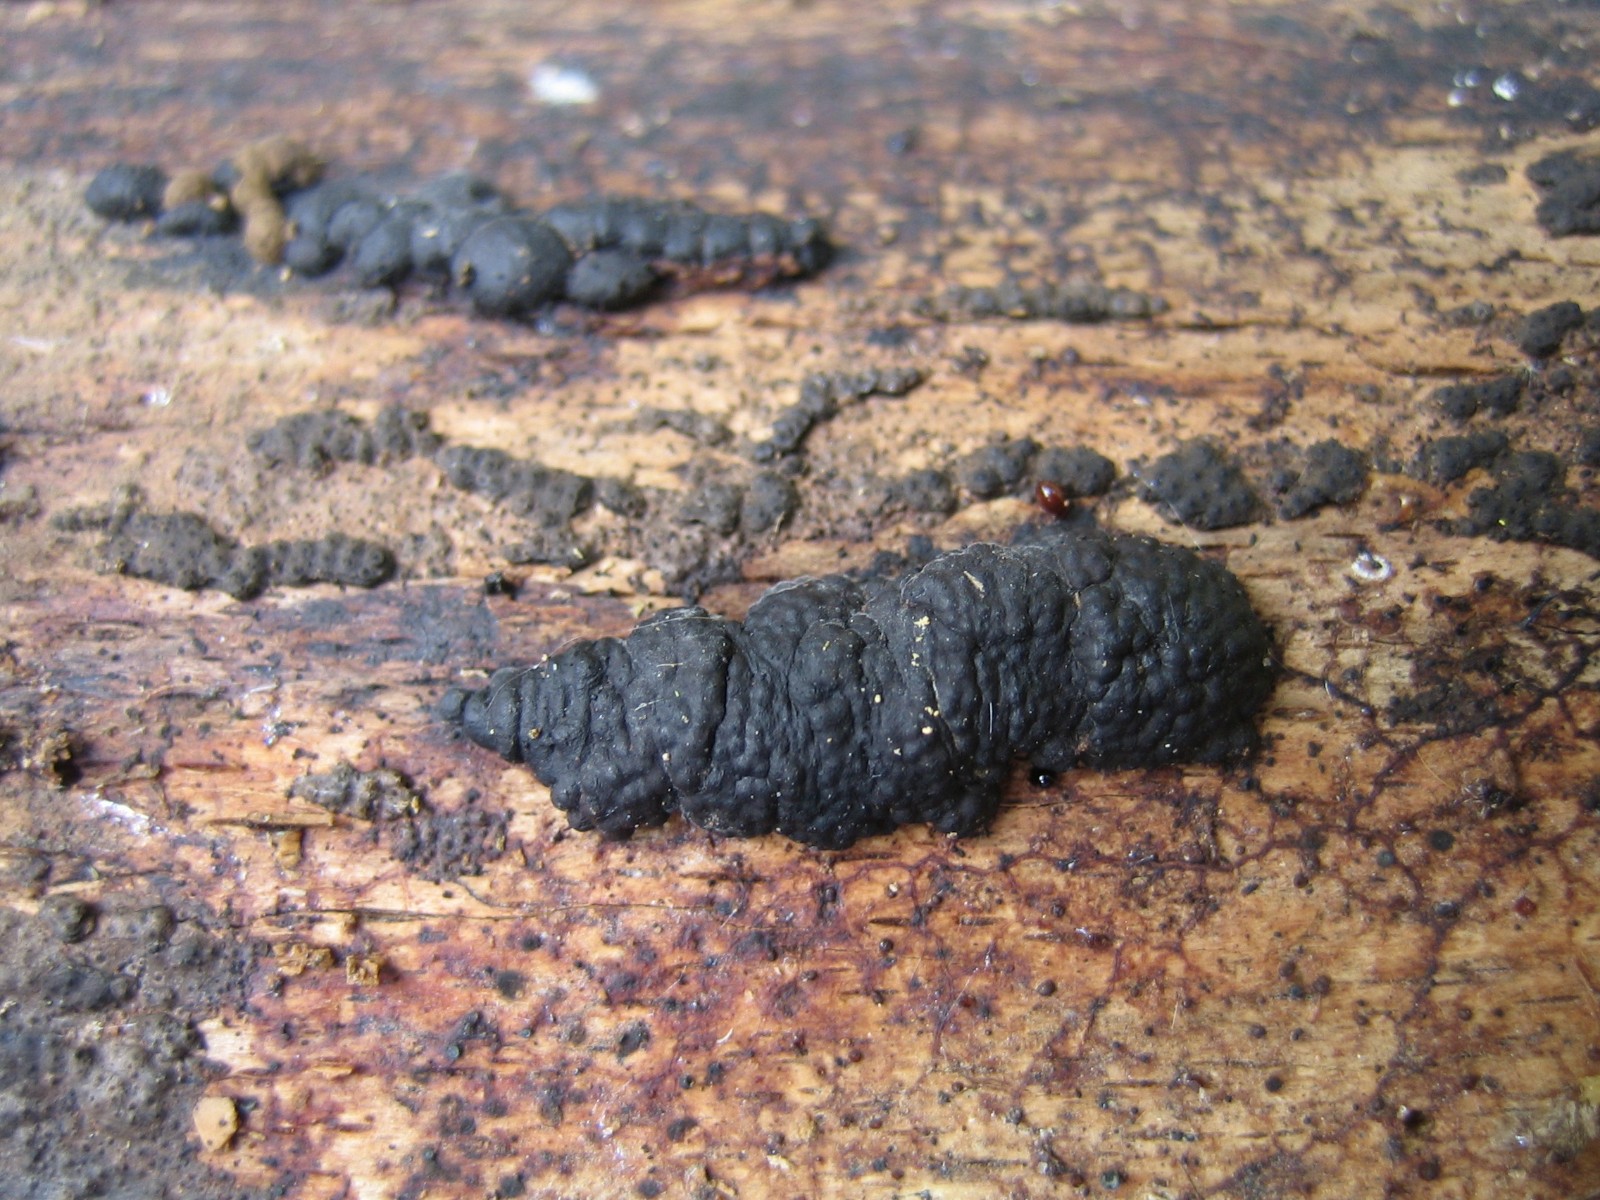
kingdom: Fungi
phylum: Ascomycota
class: Sordariomycetes
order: Xylariales
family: Xylariaceae
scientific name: Xylariaceae
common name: stødsvampfamilien
